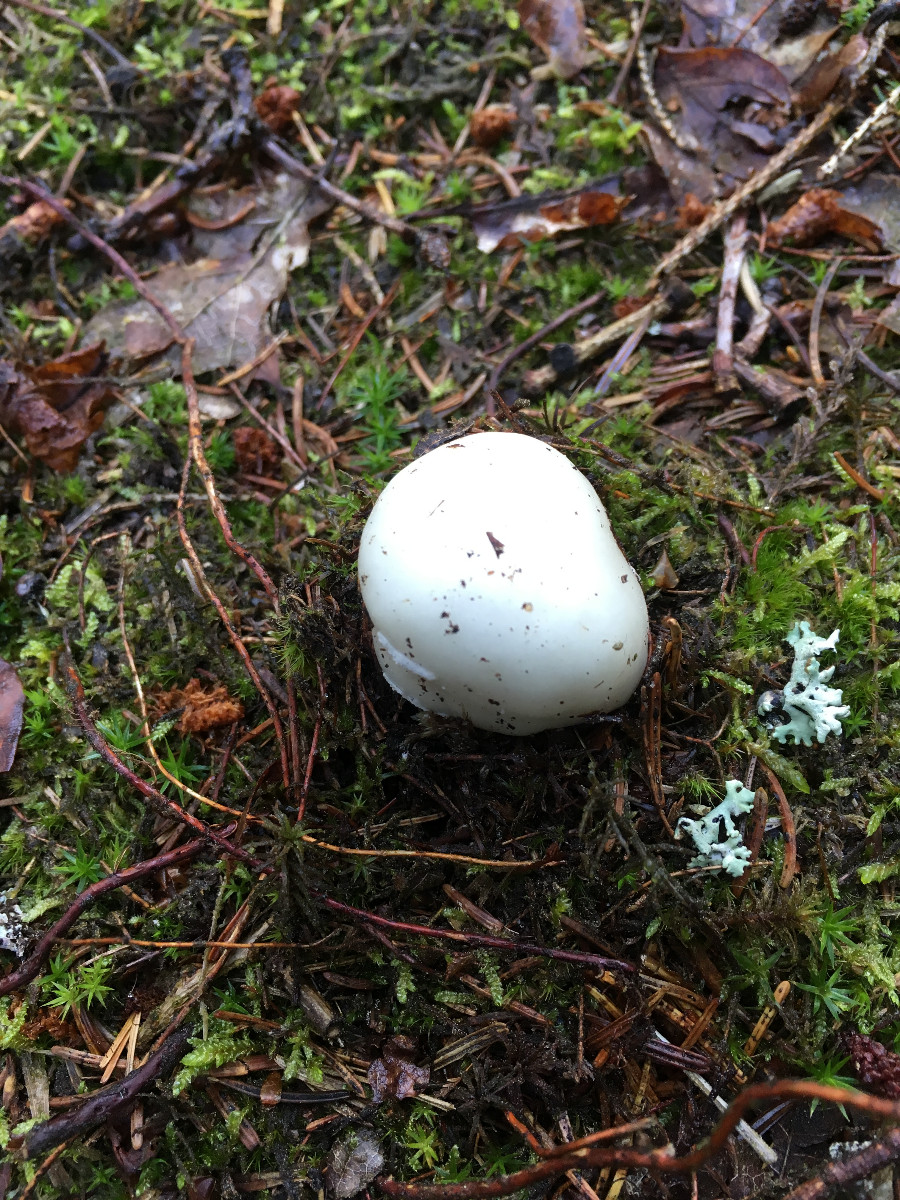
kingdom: Fungi
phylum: Basidiomycota
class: Agaricomycetes
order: Agaricales
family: Amanitaceae
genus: Amanita
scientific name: Amanita
